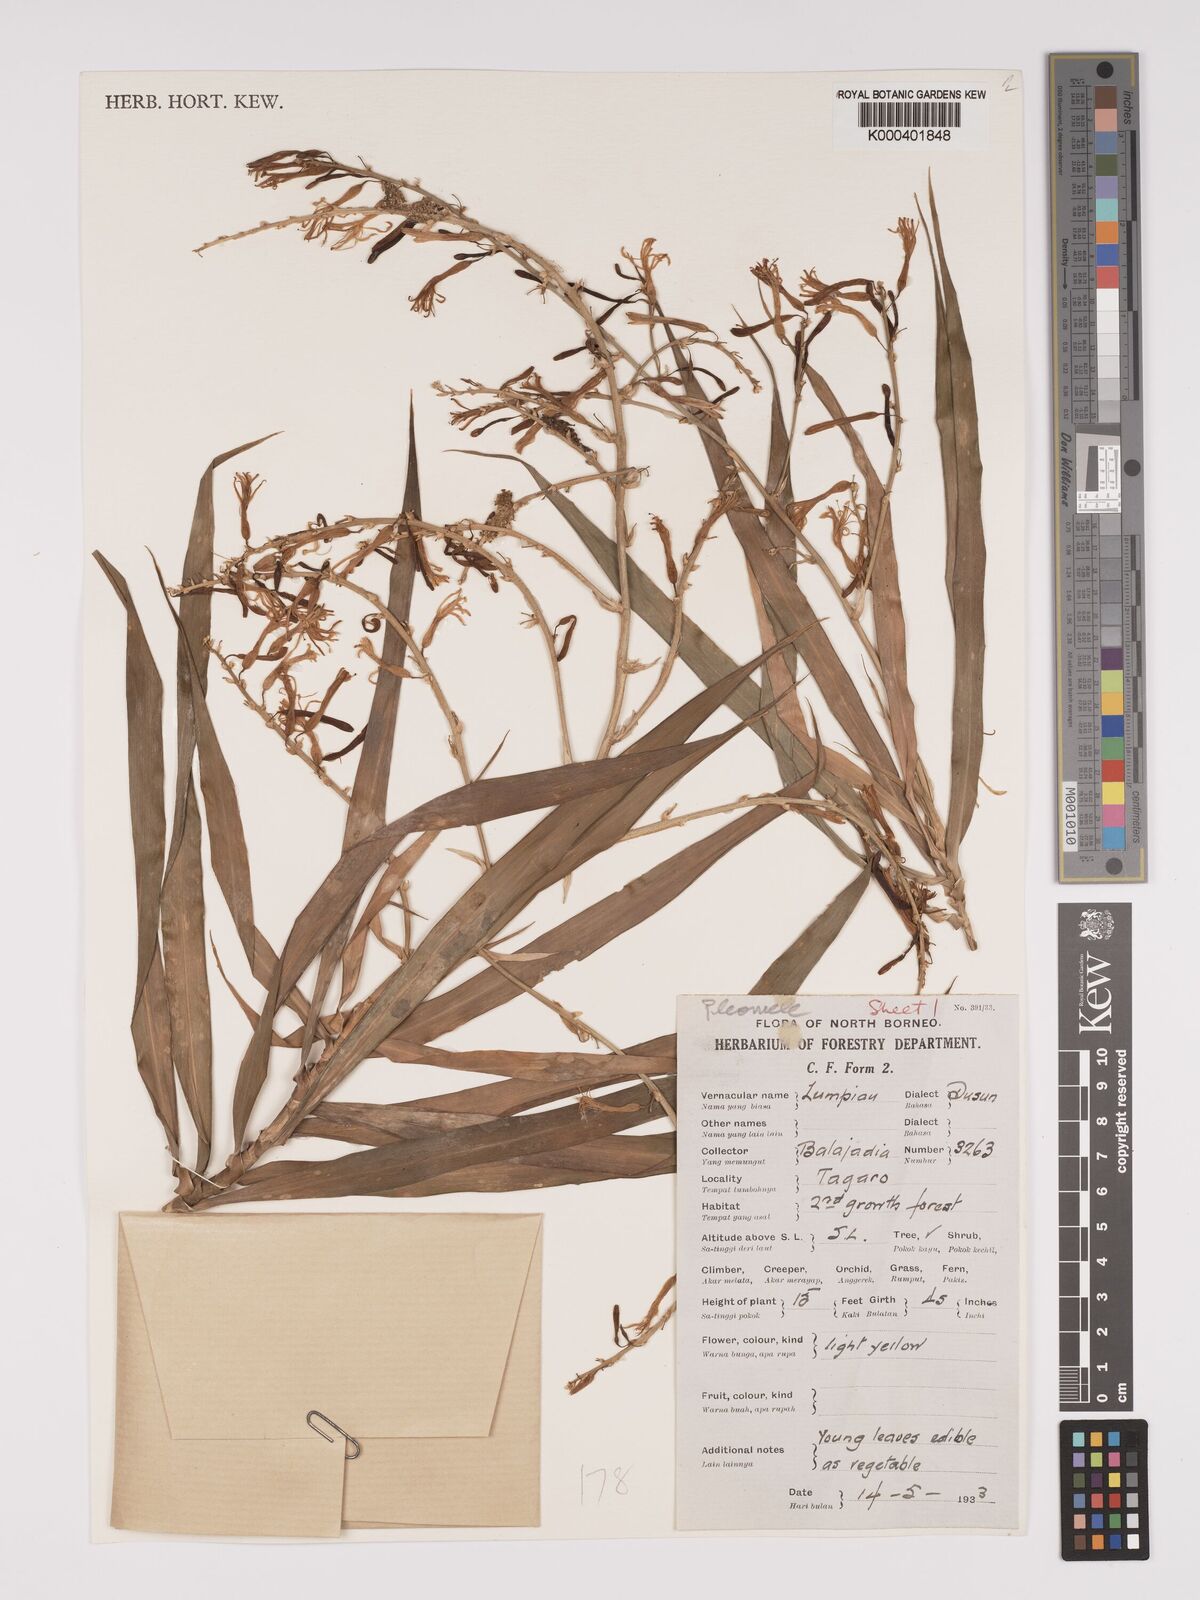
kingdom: Plantae
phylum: Tracheophyta
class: Liliopsida
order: Asparagales
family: Asparagaceae
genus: Dracaena
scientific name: Dracaena
